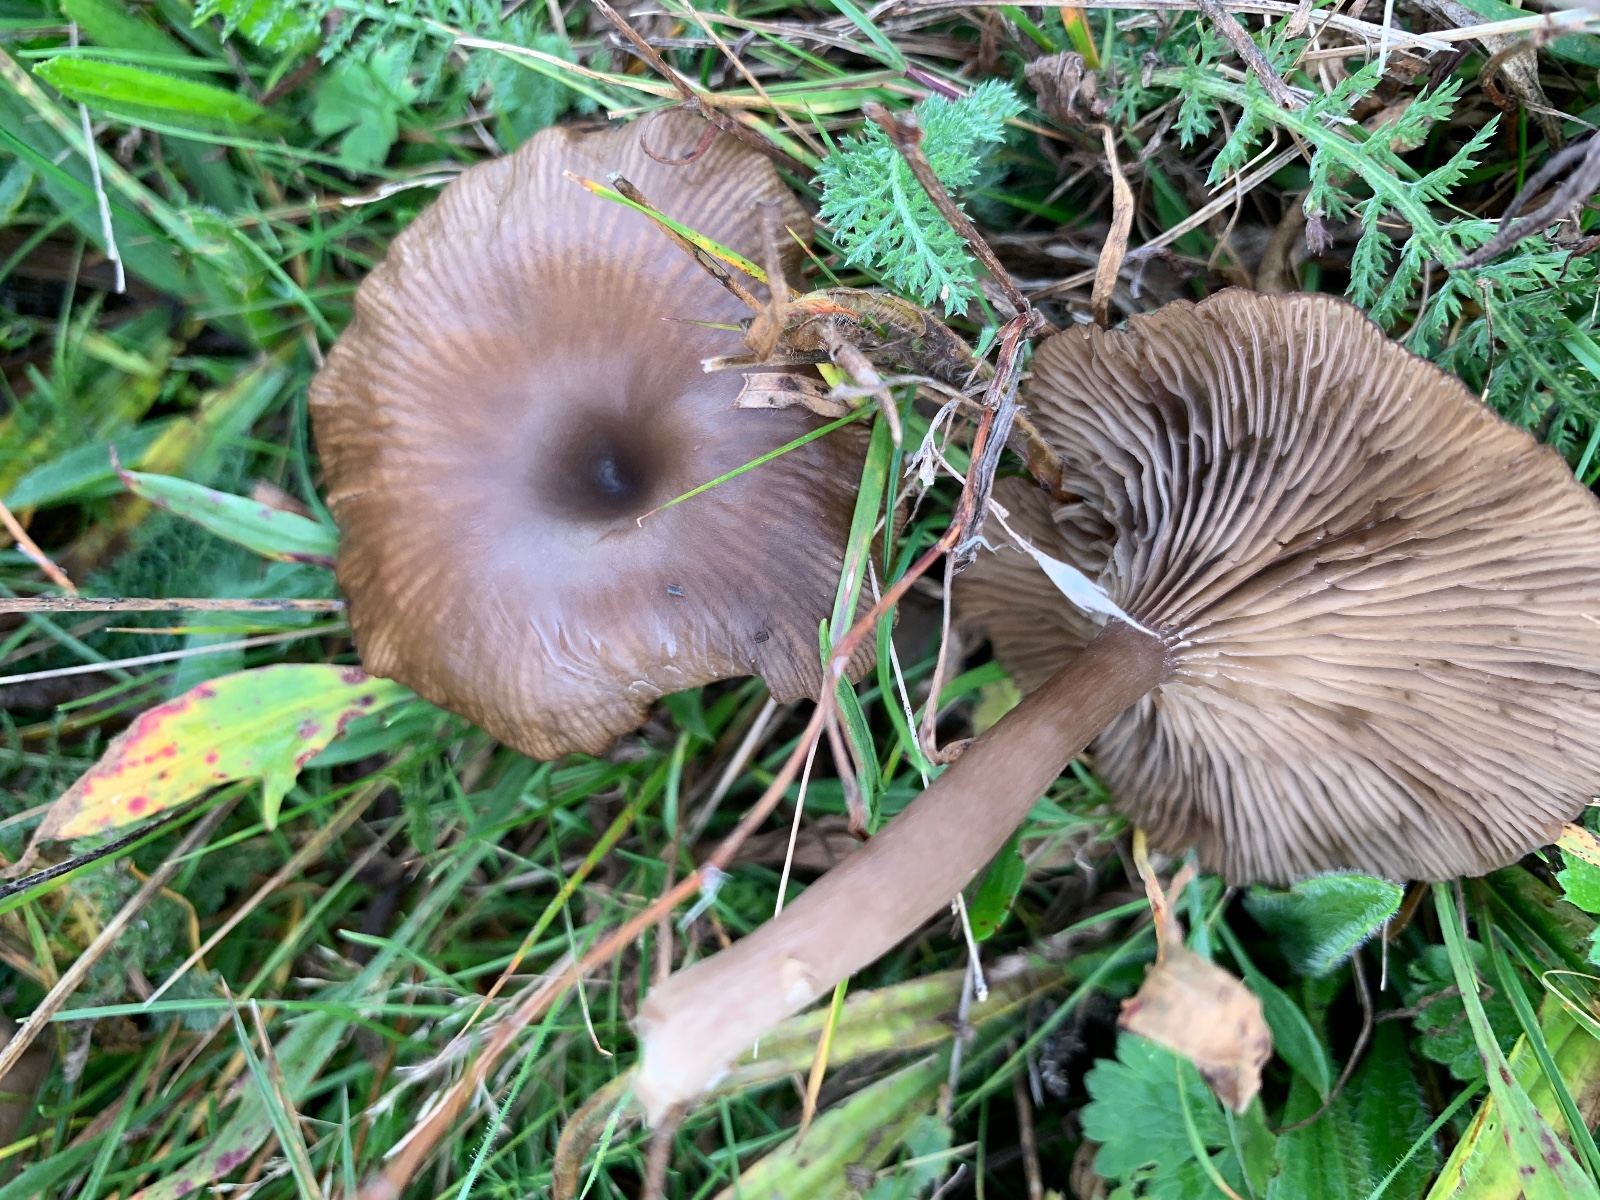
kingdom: Fungi
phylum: Basidiomycota
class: Agaricomycetes
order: Agaricales
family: Pseudoclitocybaceae
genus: Pseudoclitocybe
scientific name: Pseudoclitocybe expallens
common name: lille bægertragthat
